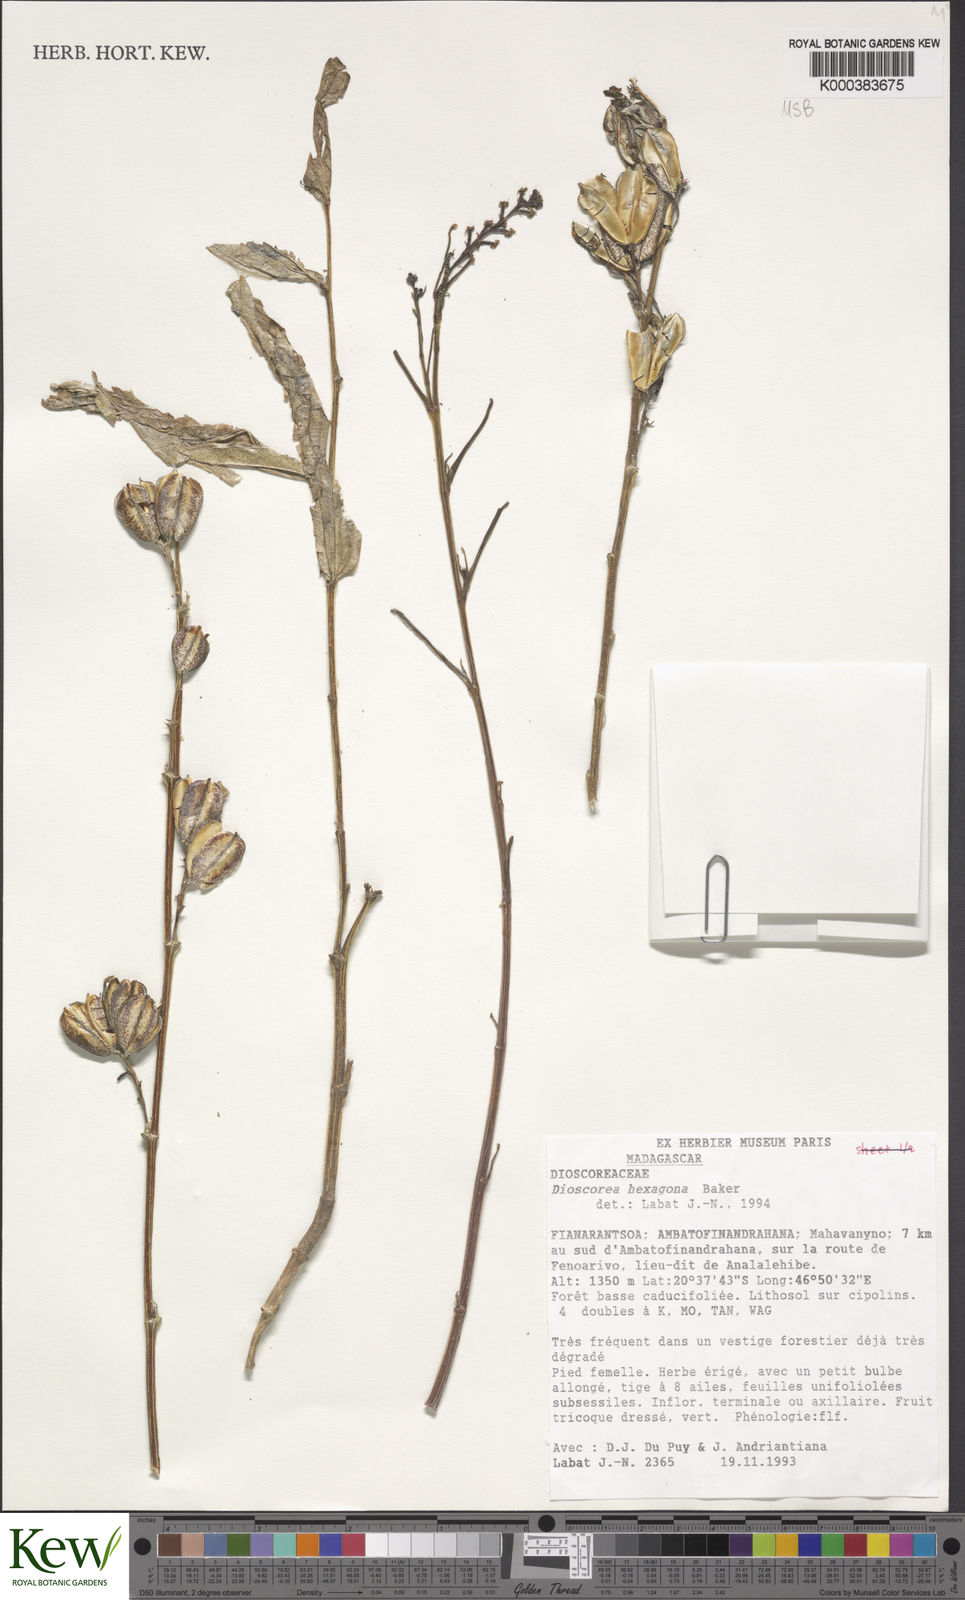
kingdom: Plantae
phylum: Tracheophyta
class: Liliopsida
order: Dioscoreales
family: Dioscoreaceae
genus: Dioscorea
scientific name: Dioscorea hexagona
